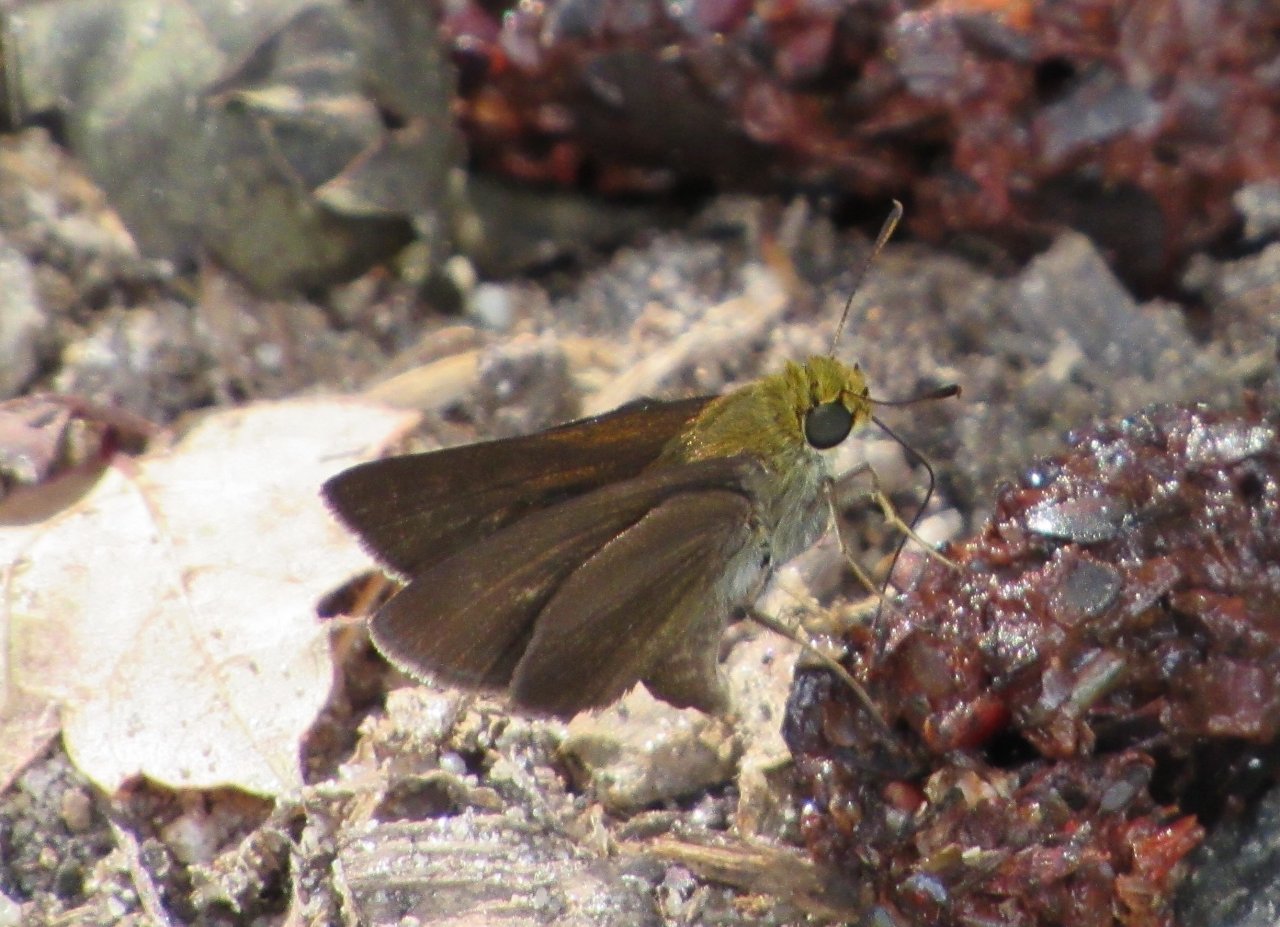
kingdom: Animalia
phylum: Arthropoda
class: Insecta
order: Lepidoptera
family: Hesperiidae
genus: Euphyes
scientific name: Euphyes vestris
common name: Dun Skipper
